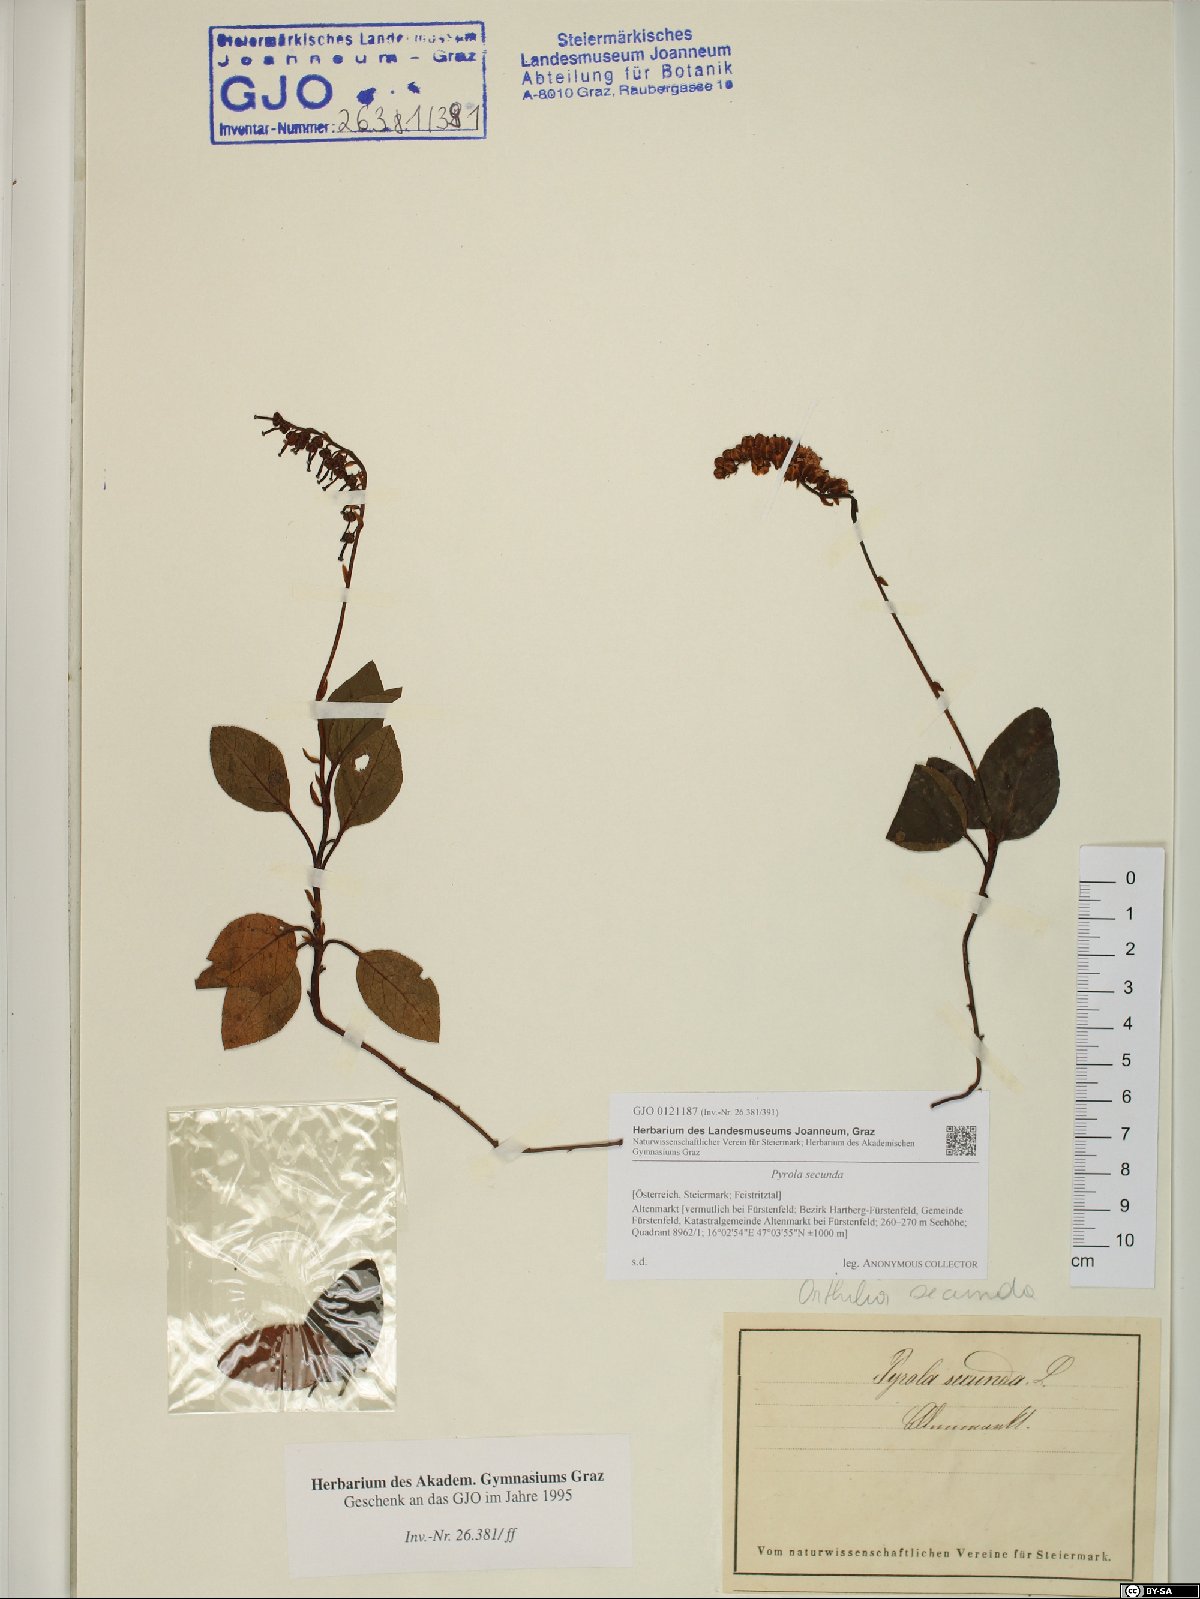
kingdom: Plantae
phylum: Tracheophyta
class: Magnoliopsida
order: Ericales
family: Ericaceae
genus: Orthilia
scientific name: Orthilia secunda
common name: One-sided orthilia
